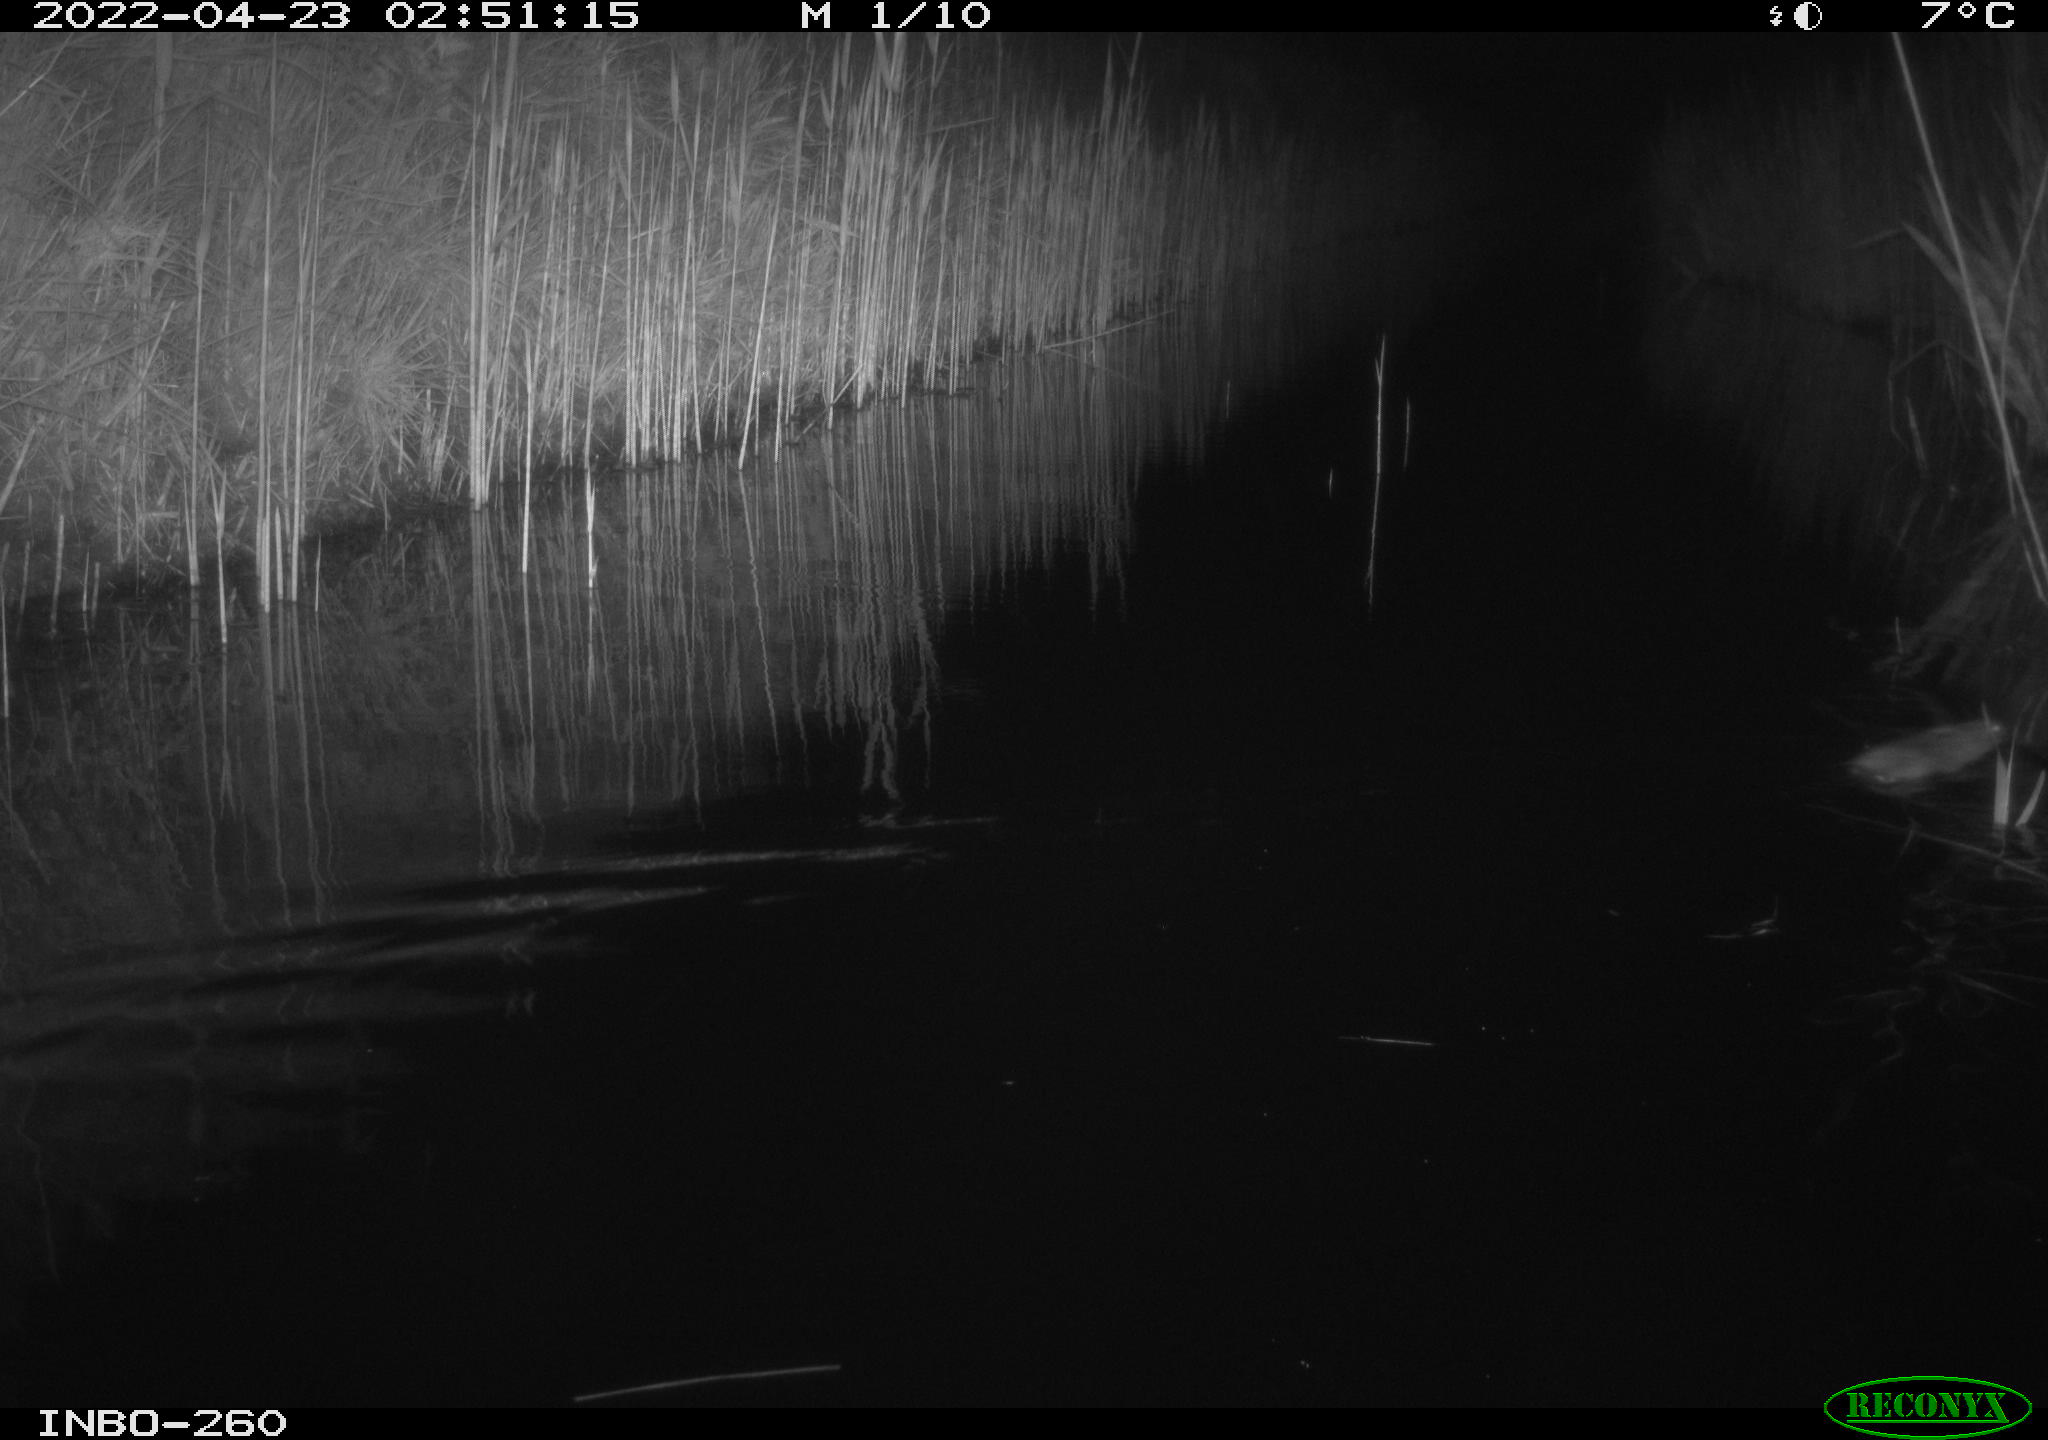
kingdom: Animalia
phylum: Chordata
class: Mammalia
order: Rodentia
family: Cricetidae
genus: Ondatra
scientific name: Ondatra zibethicus
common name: Muskrat
